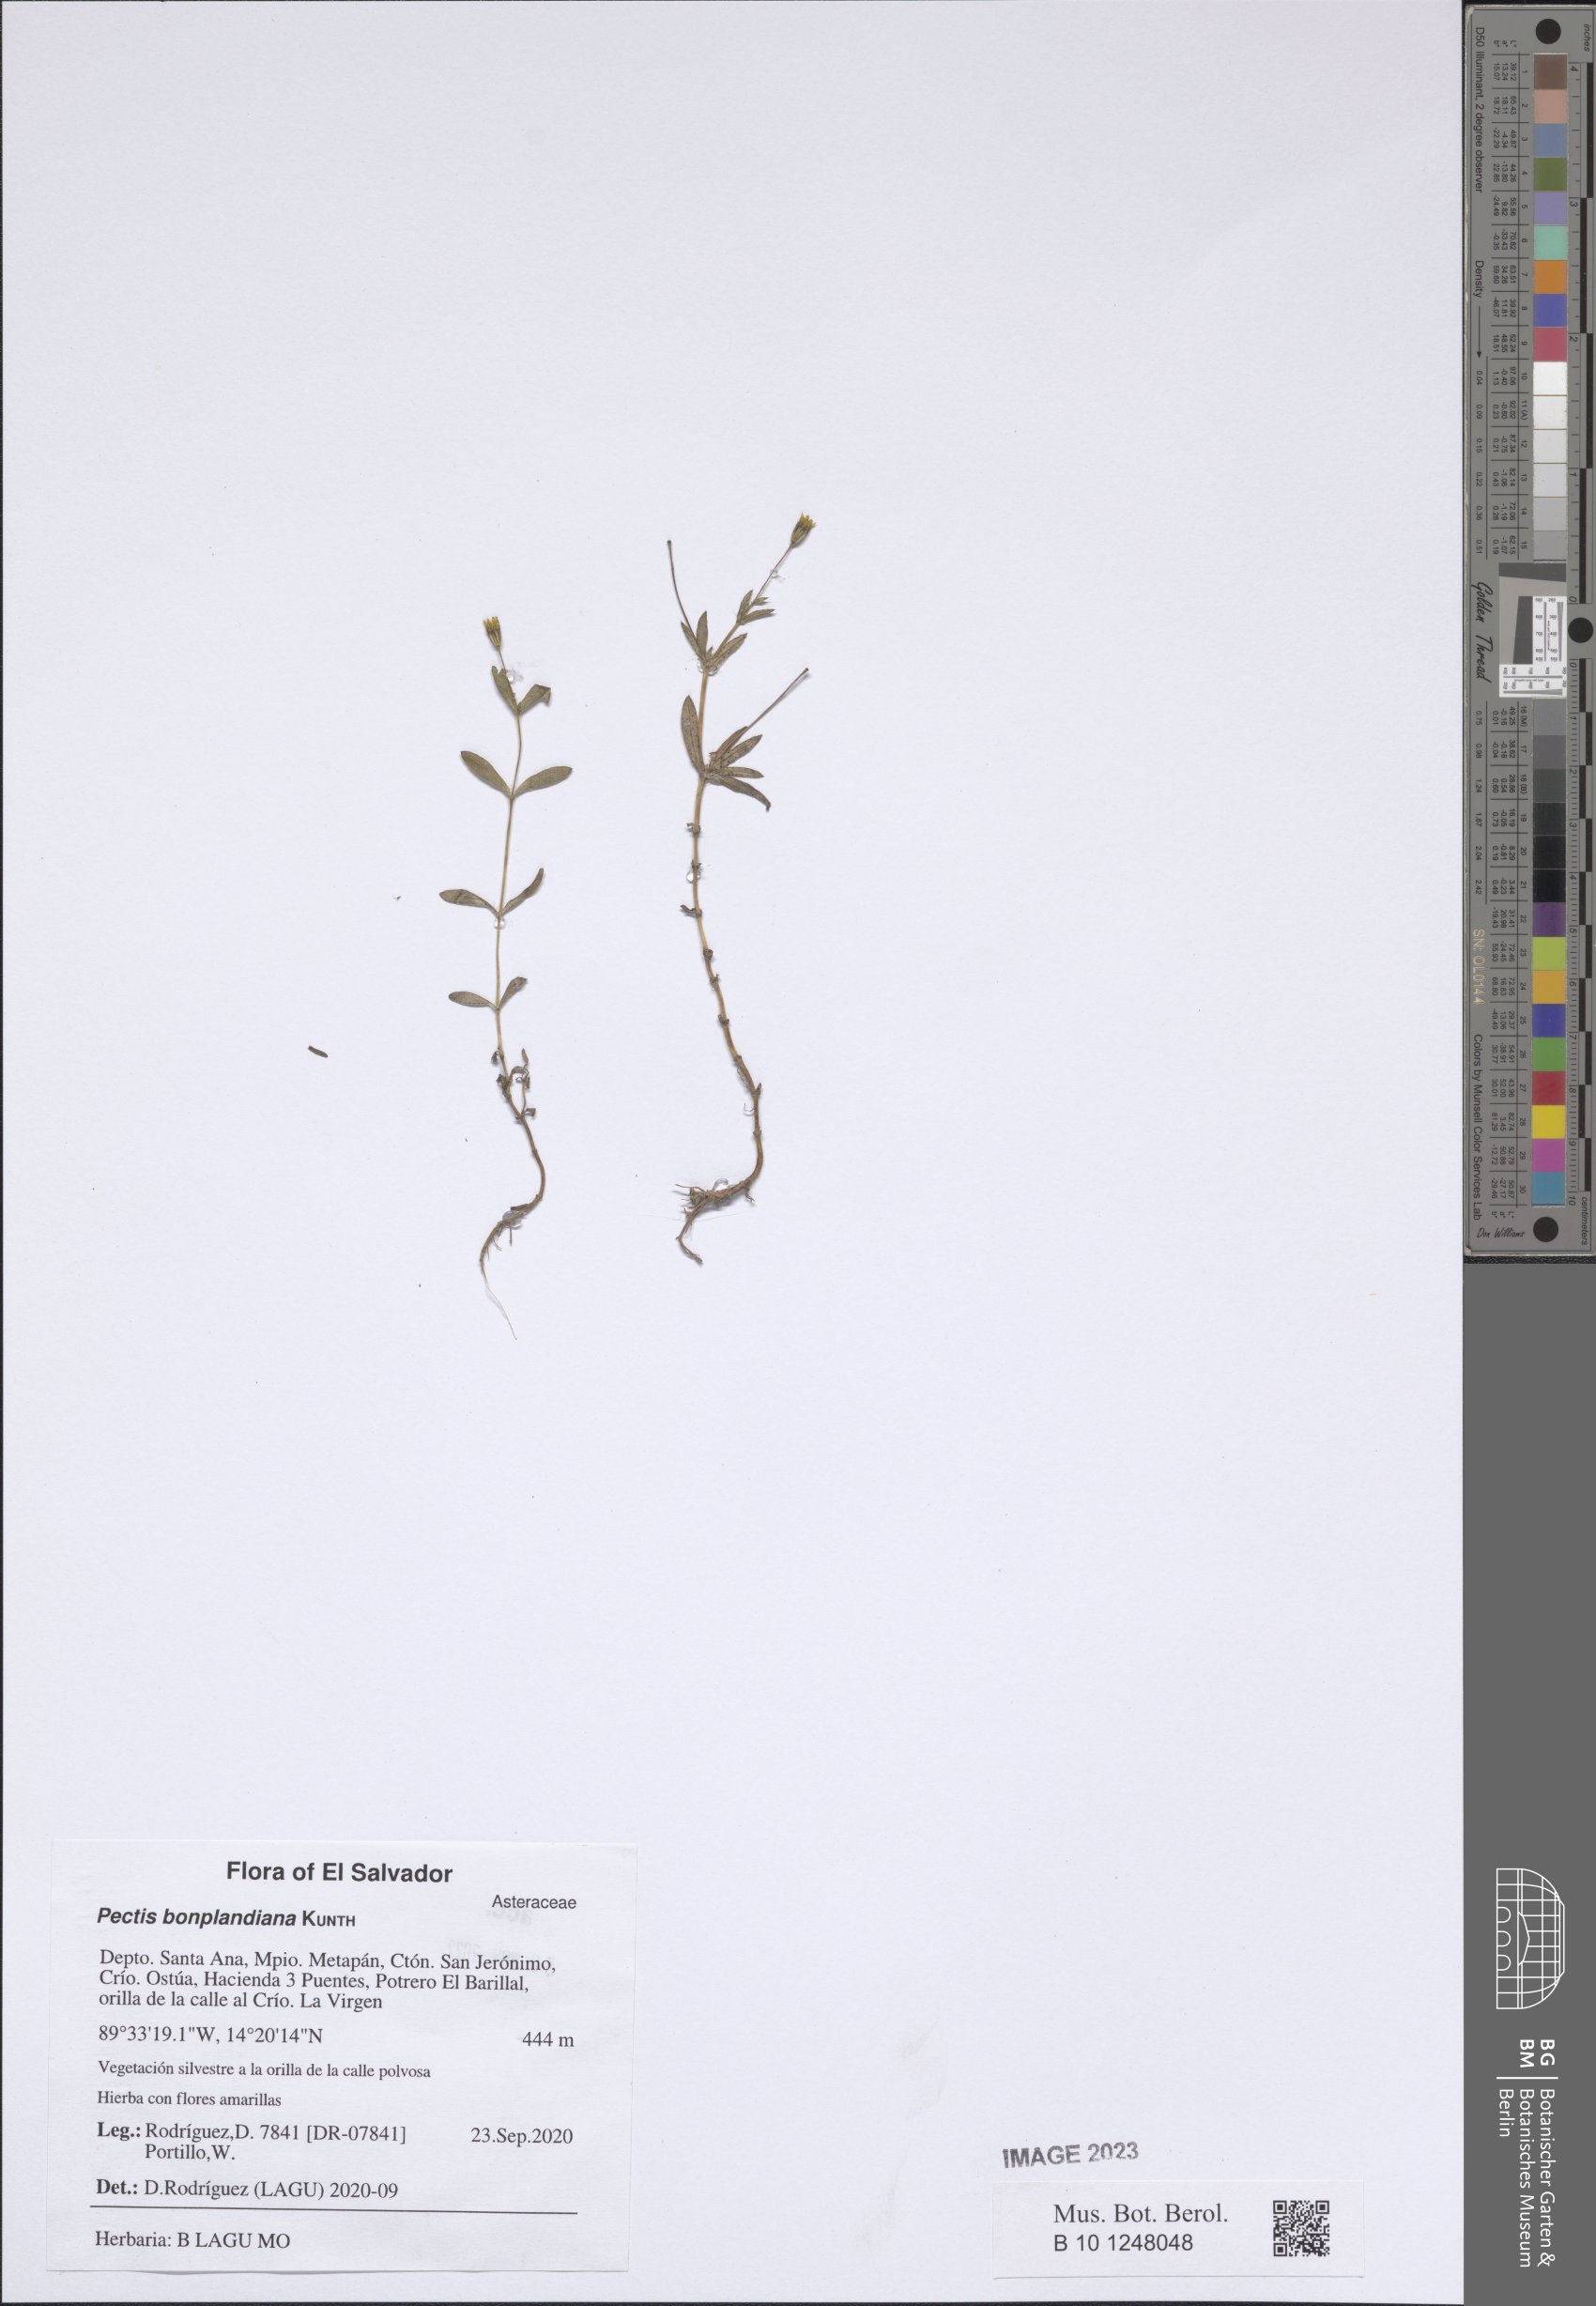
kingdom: Plantae
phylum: Tracheophyta
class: Magnoliopsida
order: Asterales
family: Asteraceae
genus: Pectis
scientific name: Pectis bonplandiana
